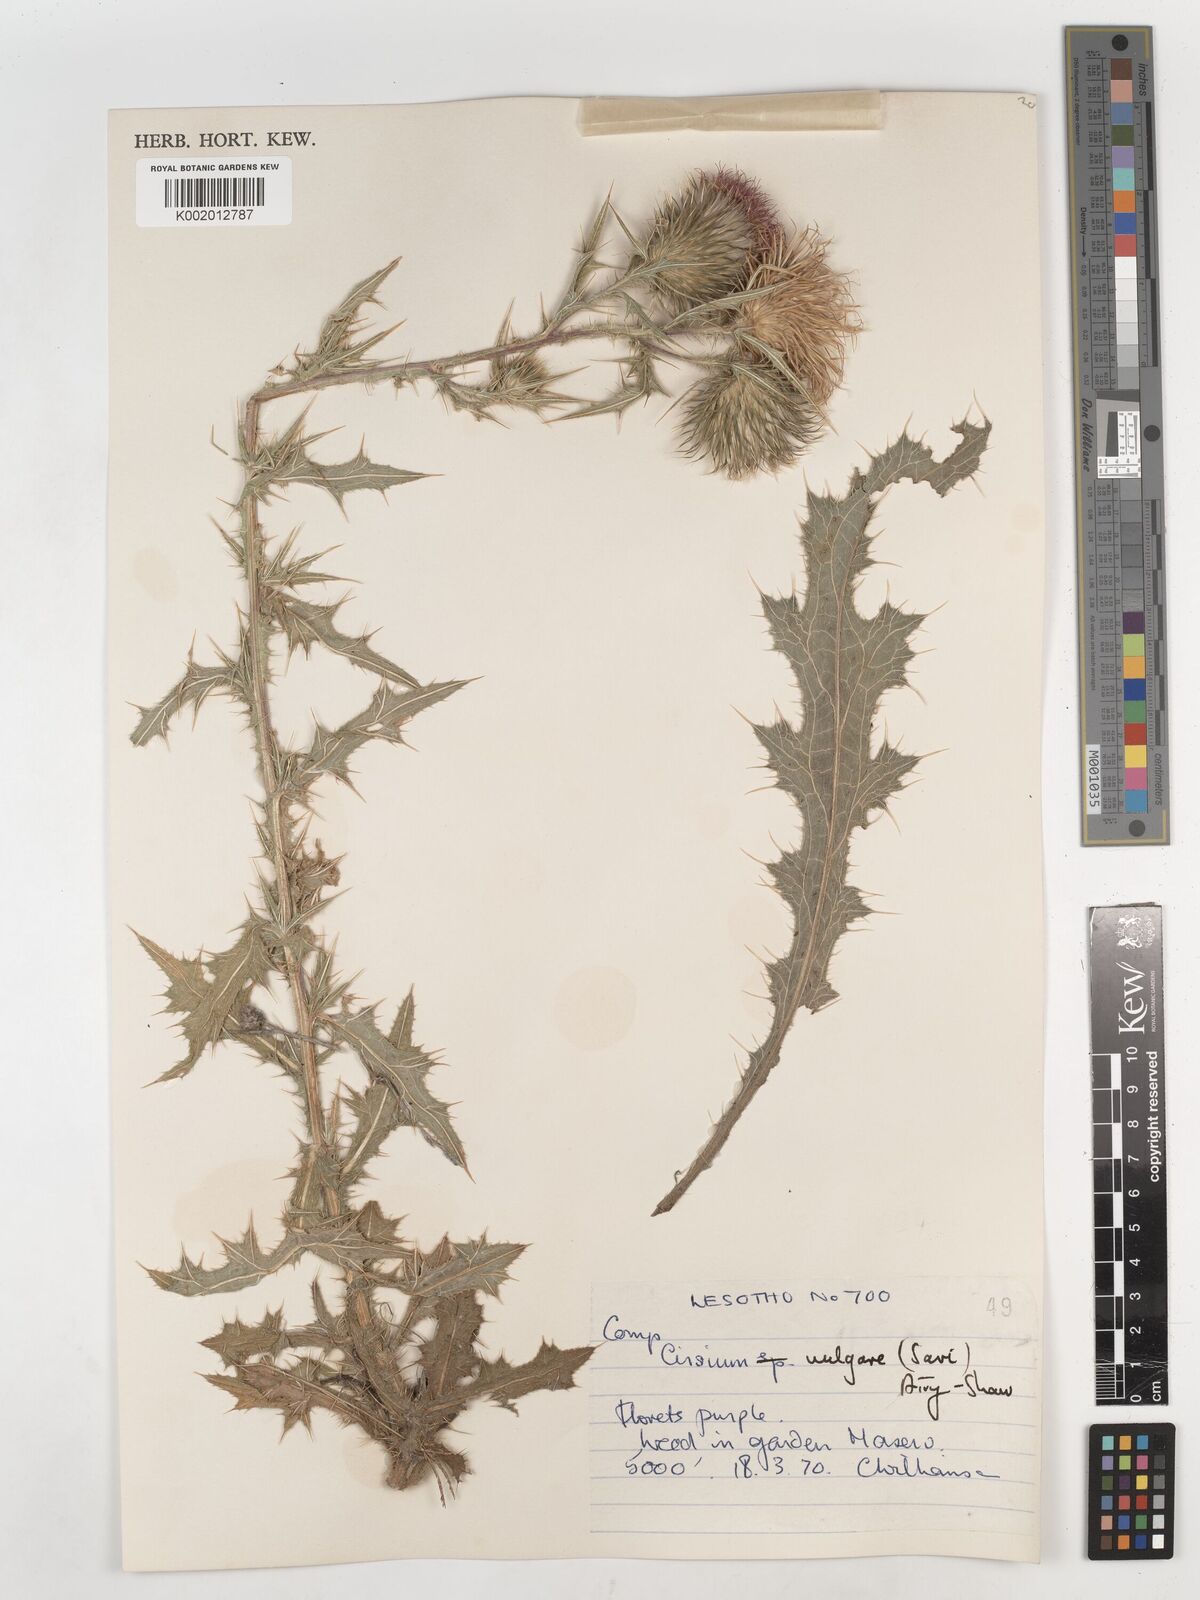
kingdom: Plantae
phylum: Tracheophyta
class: Magnoliopsida
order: Asterales
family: Asteraceae
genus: Cirsium
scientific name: Cirsium vulgare
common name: Bull thistle
